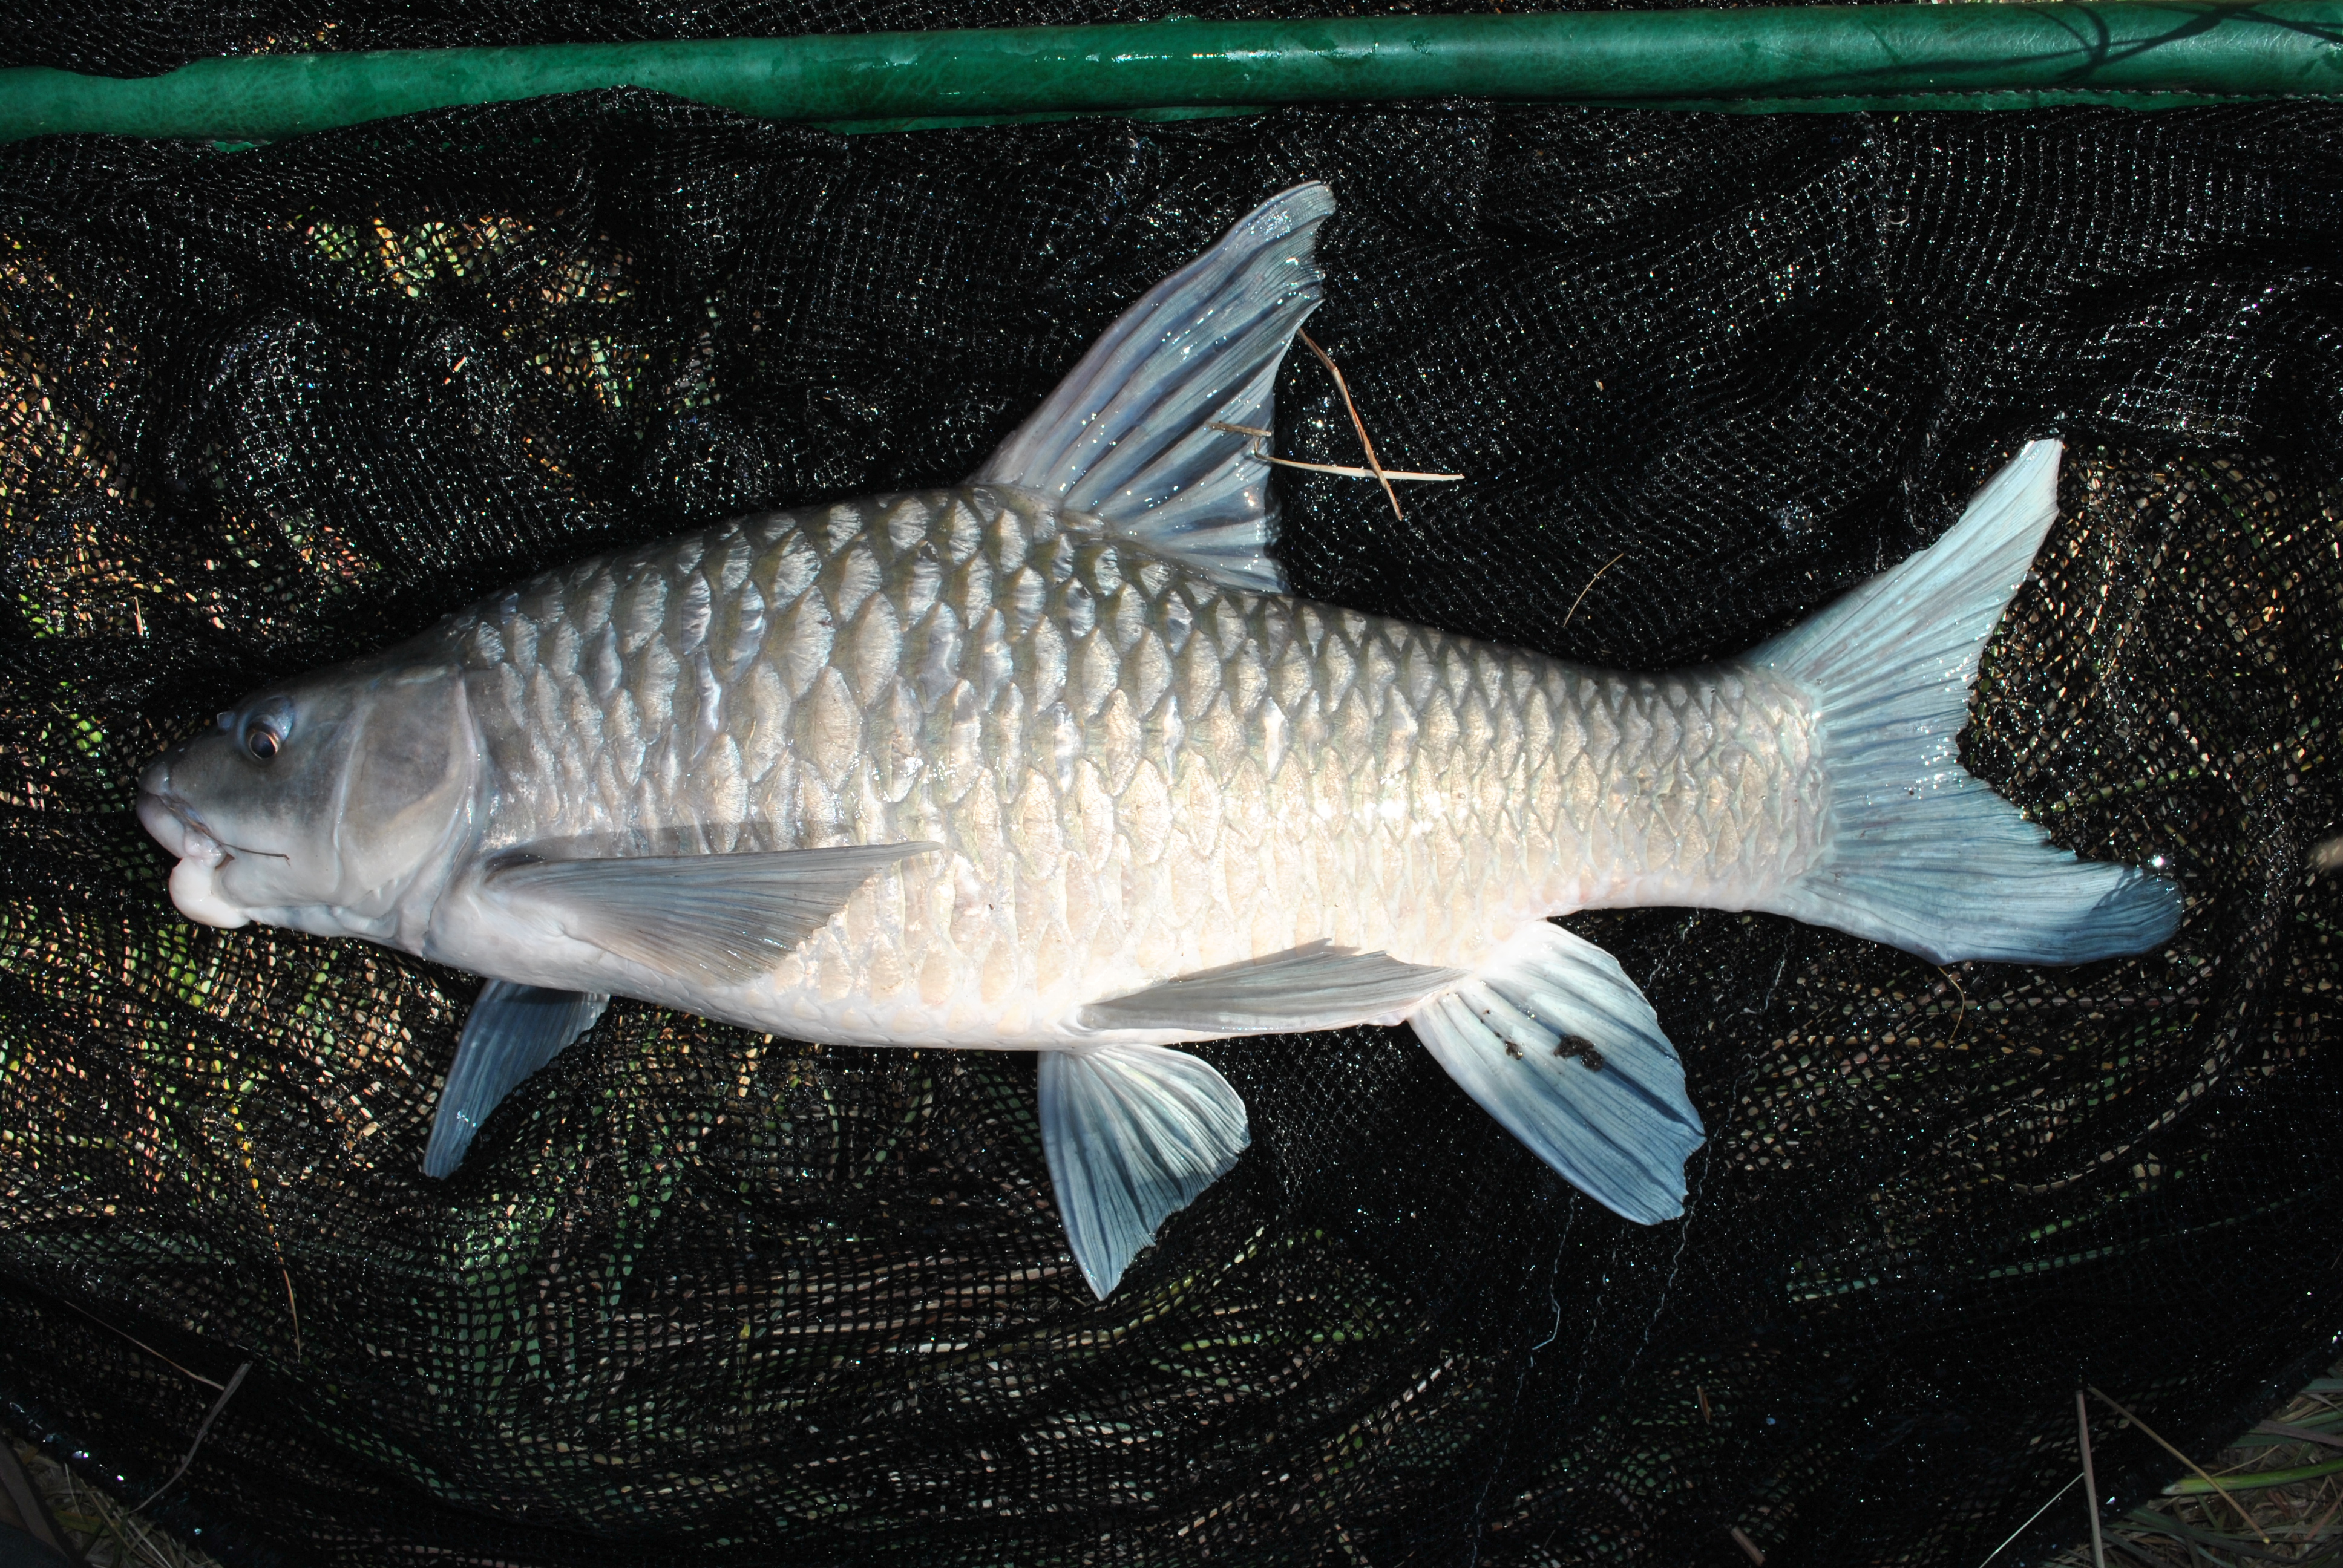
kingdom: Animalia
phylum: Chordata
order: Cypriniformes
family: Cyprinidae
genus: Labeobarbus
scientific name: Labeobarbus codringtonii
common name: Upper zambezi yellowfish
